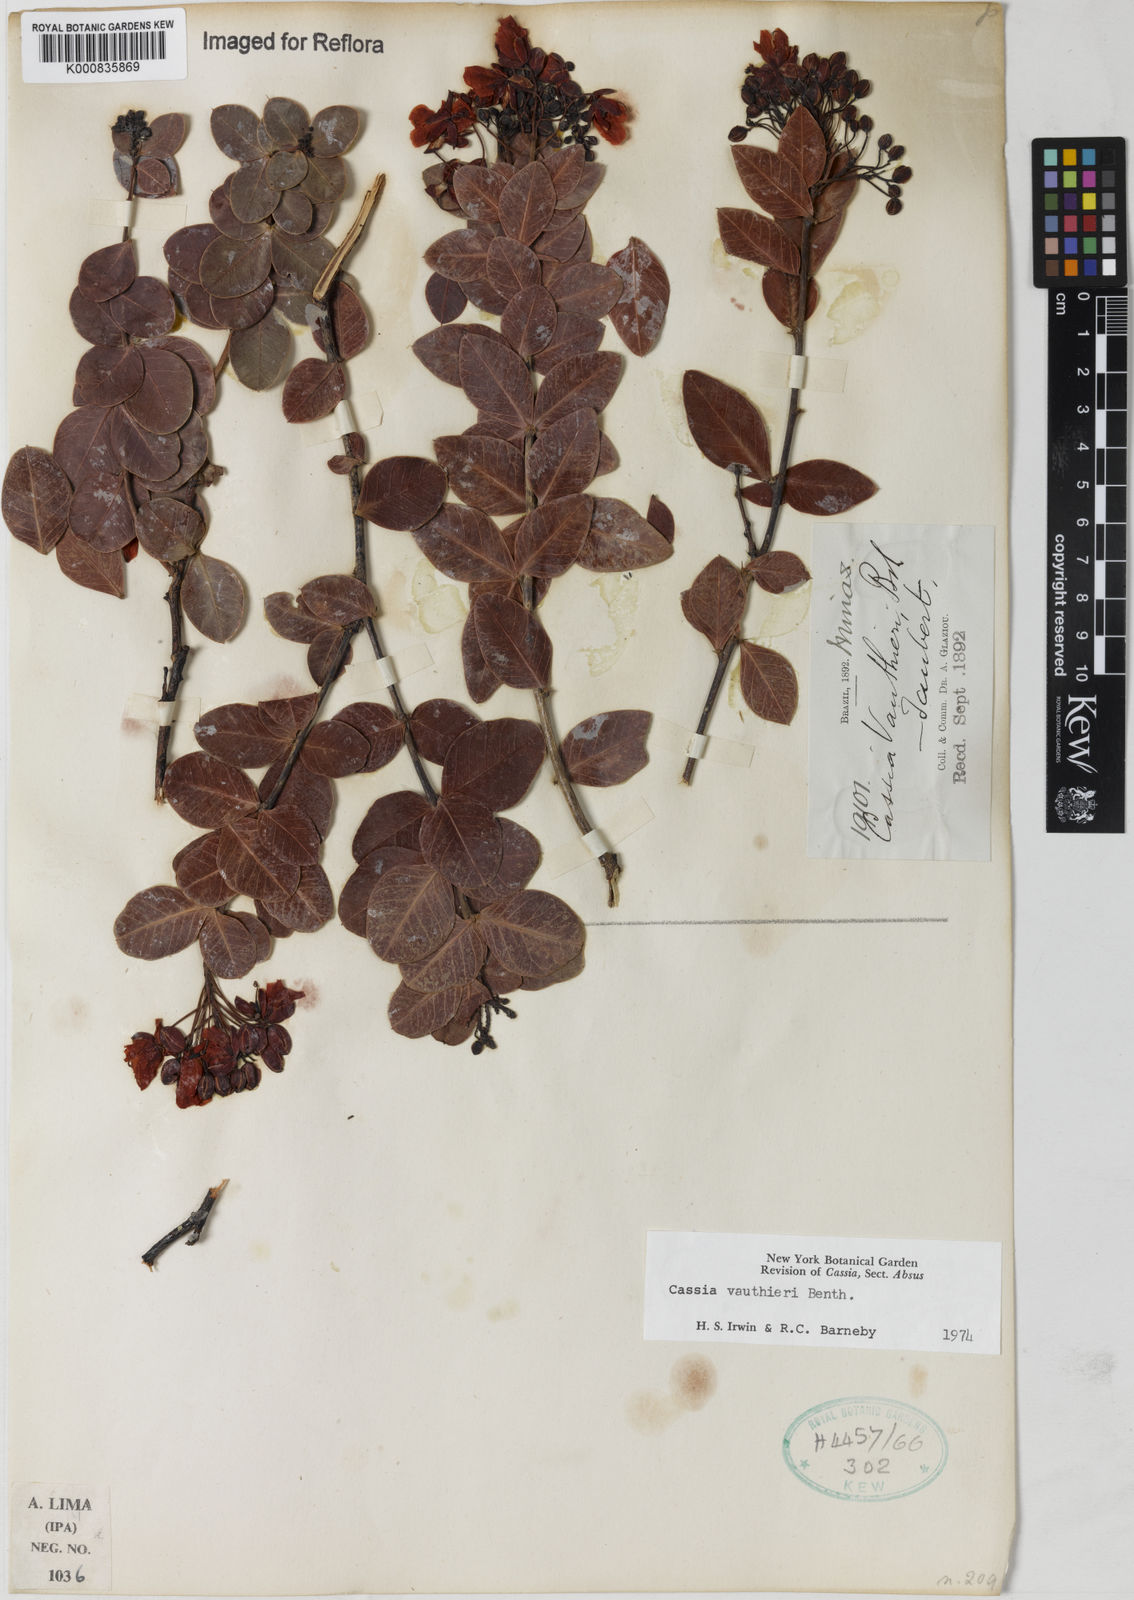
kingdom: Plantae
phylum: Tracheophyta
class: Magnoliopsida
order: Fabales
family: Fabaceae
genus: Chamaecrista
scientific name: Chamaecrista vauthieri
